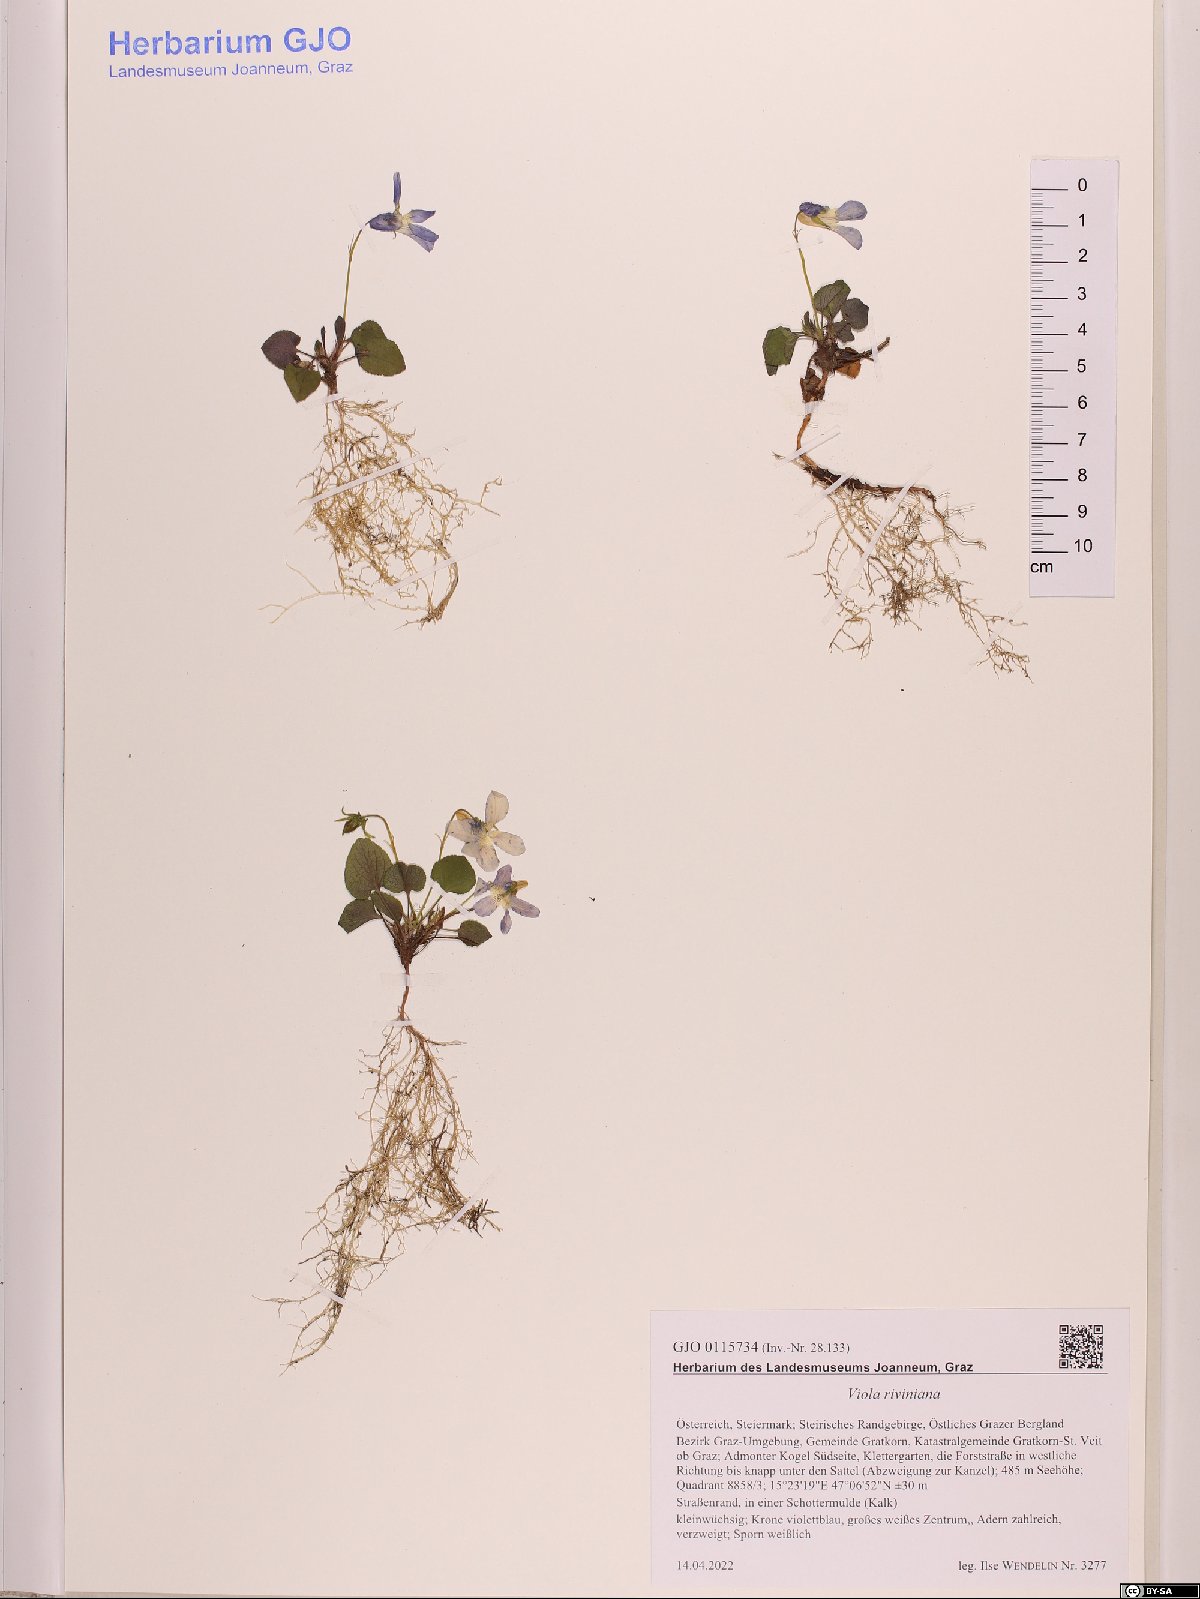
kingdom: Plantae
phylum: Tracheophyta
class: Magnoliopsida
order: Malpighiales
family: Violaceae
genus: Viola
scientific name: Viola riviniana
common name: Common dog-violet
